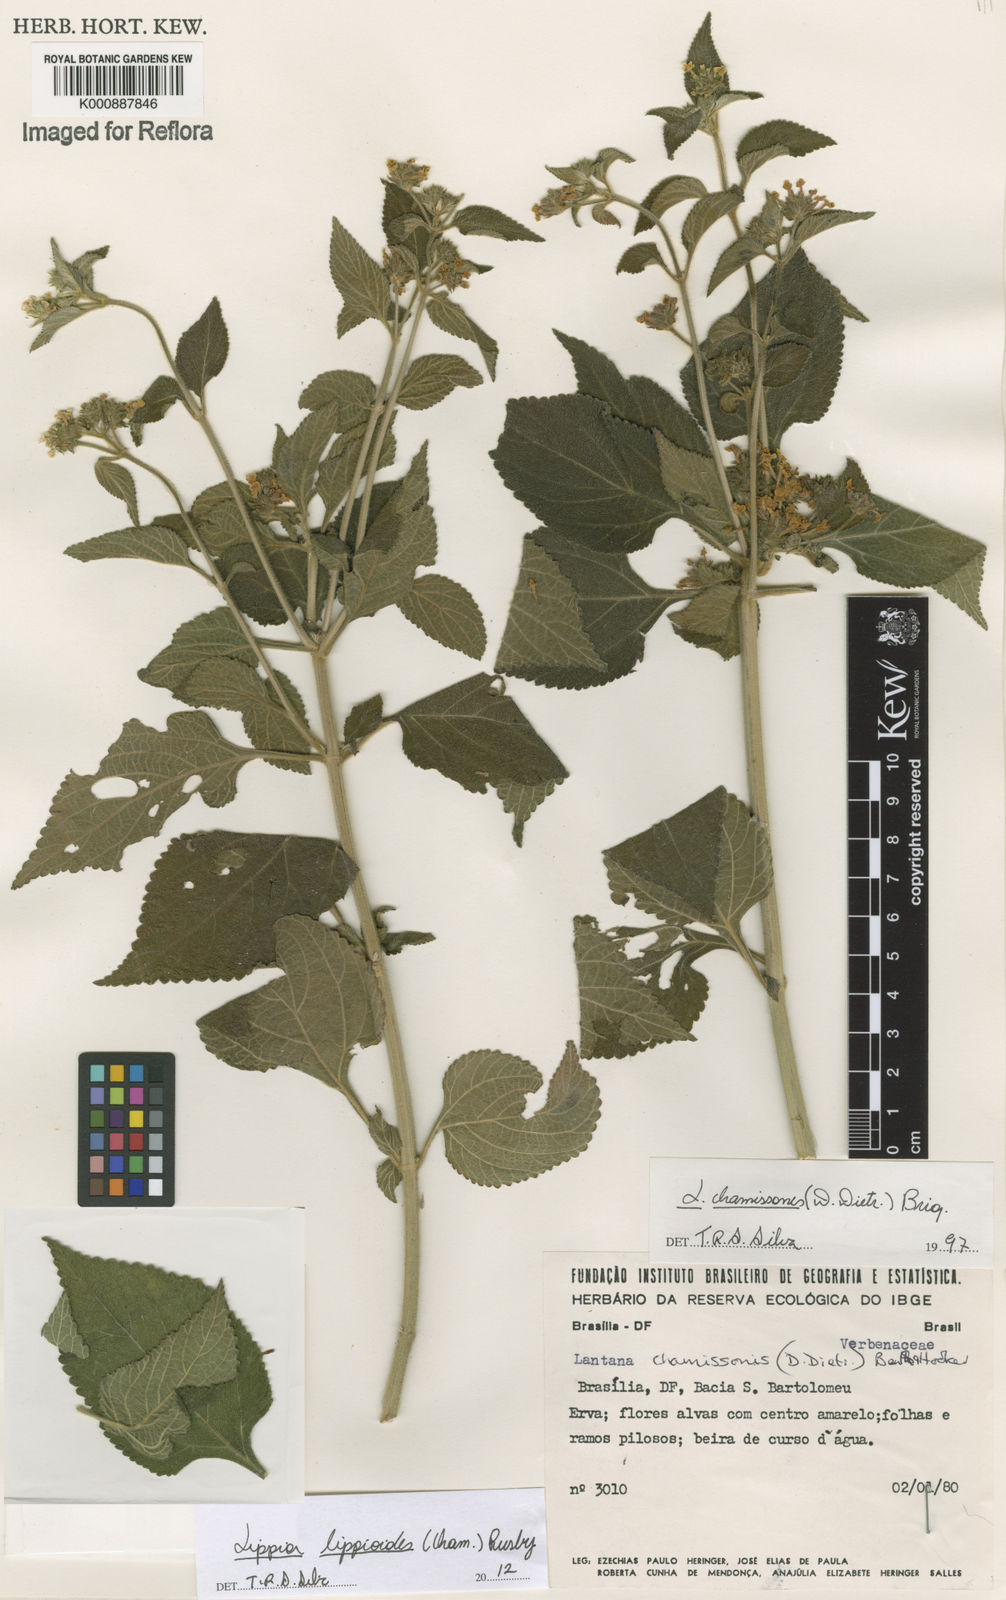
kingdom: Plantae
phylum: Tracheophyta
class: Magnoliopsida
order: Lamiales
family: Verbenaceae
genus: Lippia
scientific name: Lippia lippioides
